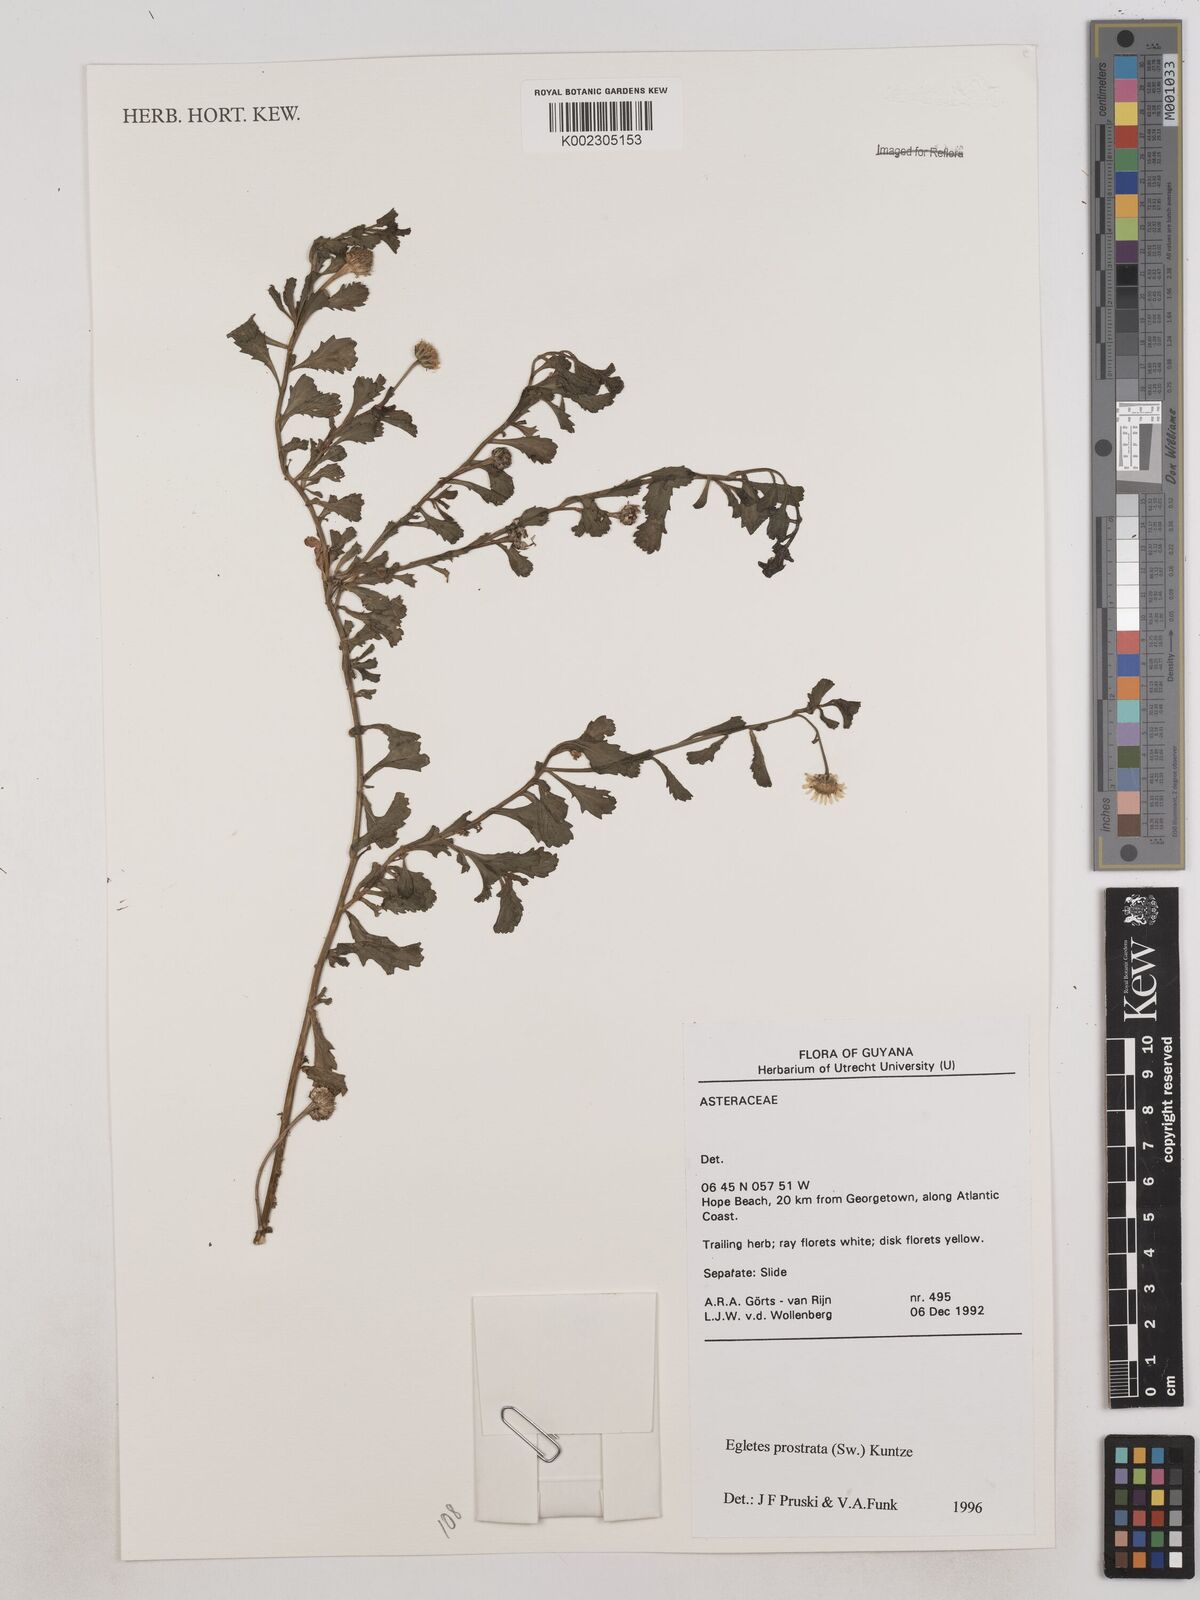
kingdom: Plantae
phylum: Tracheophyta
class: Magnoliopsida
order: Asterales
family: Asteraceae
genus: Egletes
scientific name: Egletes prostrata
